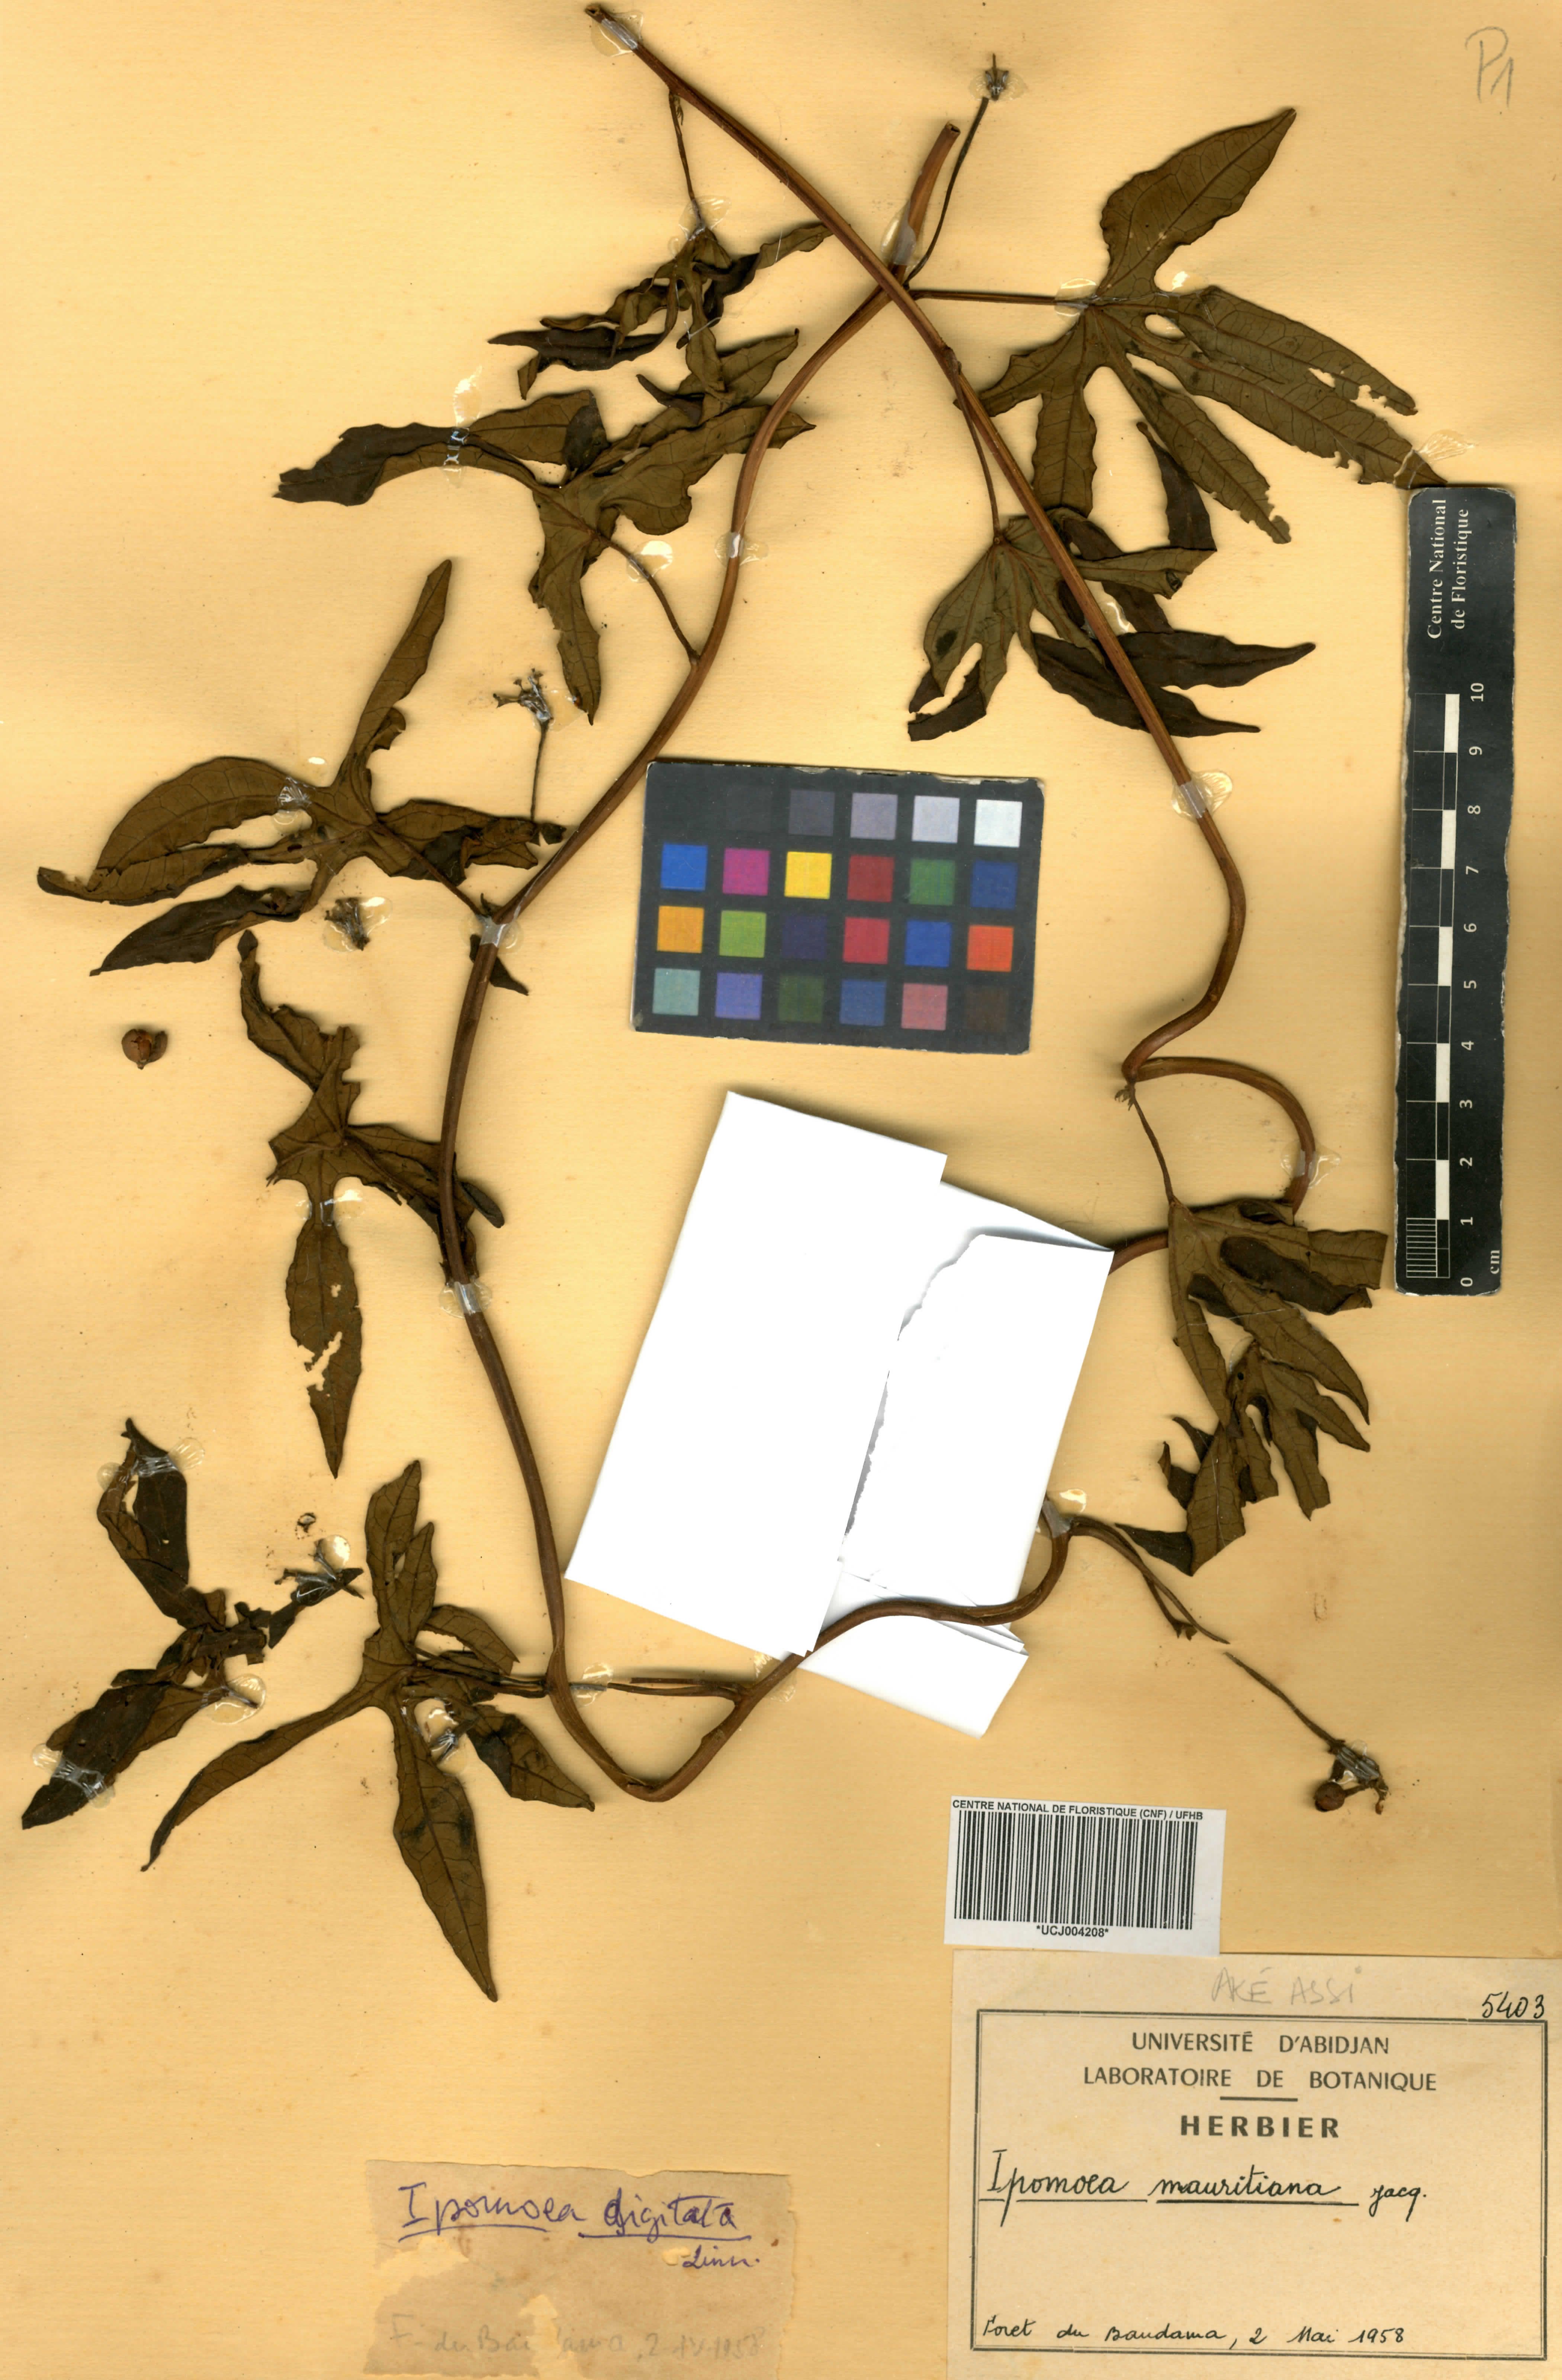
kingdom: Plantae
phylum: Tracheophyta
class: Magnoliopsida
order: Solanales
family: Convolvulaceae
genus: Ipomoea
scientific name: Ipomoea mauritiana
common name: Mauritanian convolvulus
